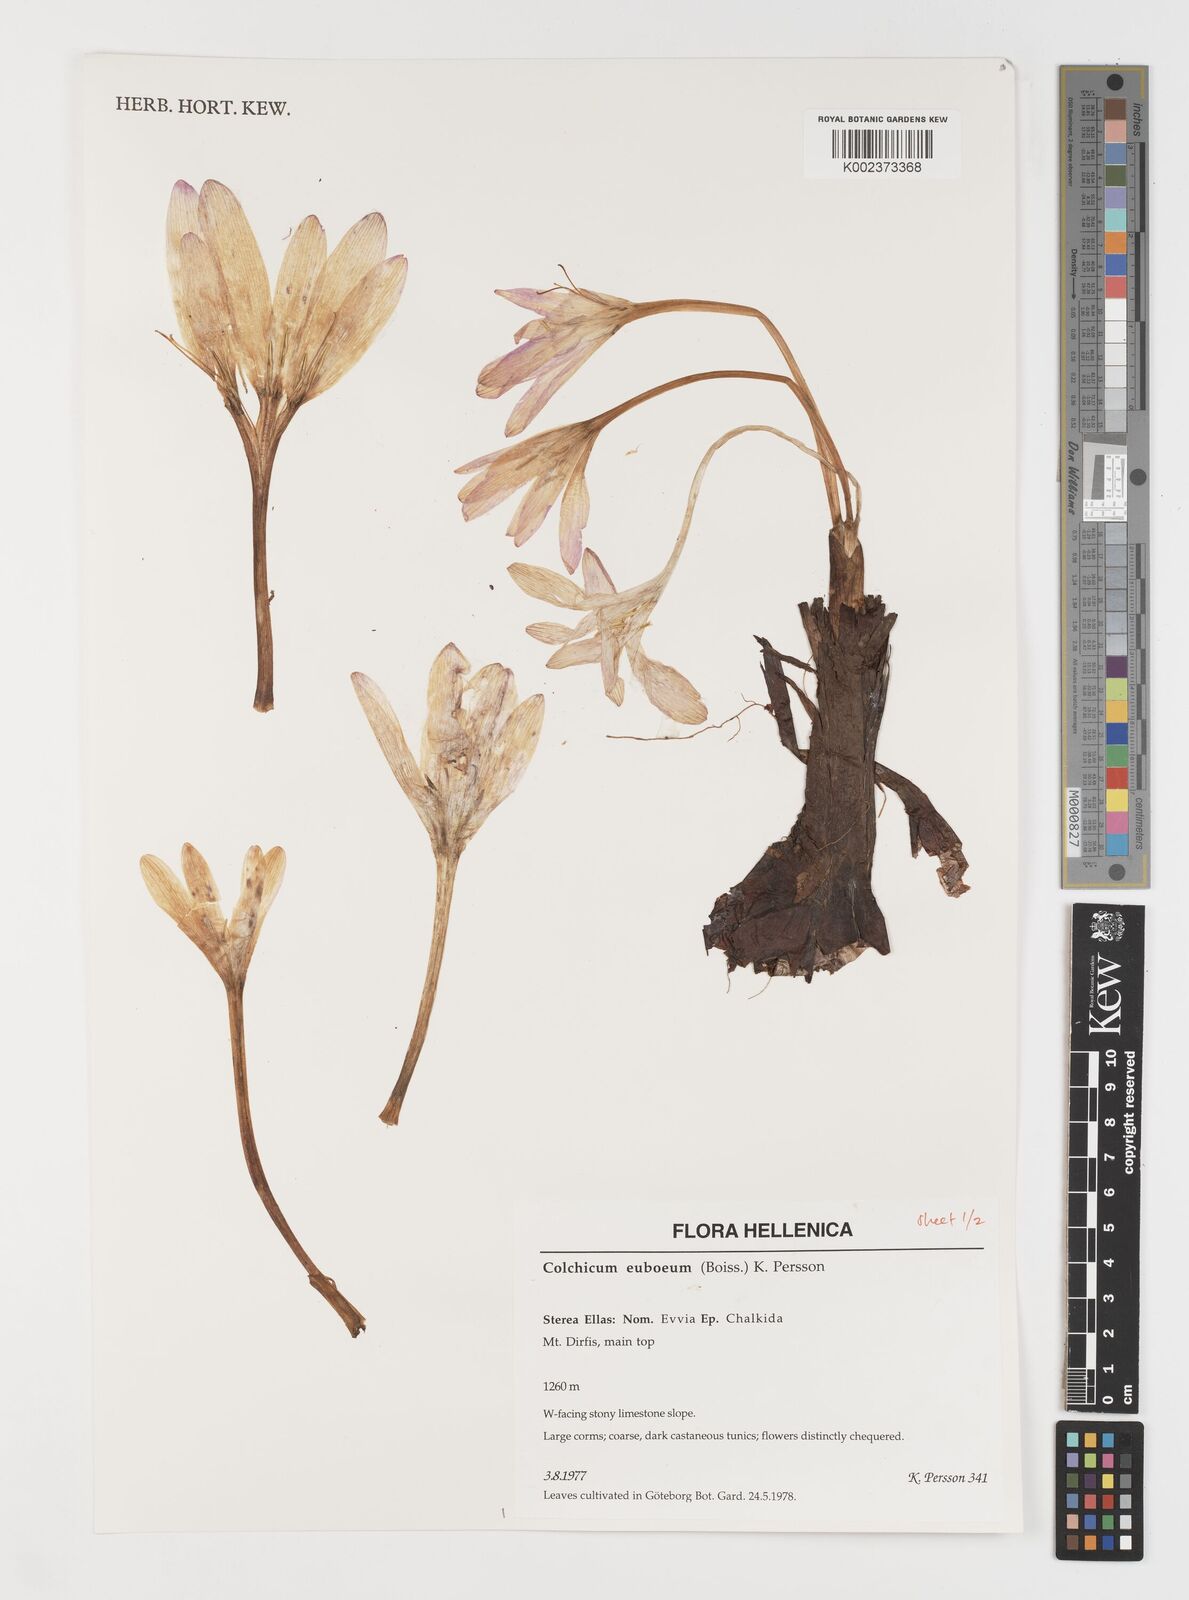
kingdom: Plantae
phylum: Tracheophyta
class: Liliopsida
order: Liliales
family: Colchicaceae
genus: Colchicum
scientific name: Colchicum euboeum
